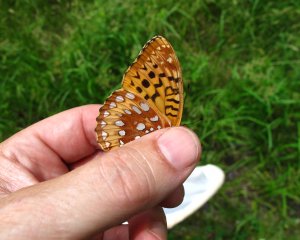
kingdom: Animalia
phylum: Arthropoda
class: Insecta
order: Lepidoptera
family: Nymphalidae
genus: Speyeria
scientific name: Speyeria cybele
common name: Great Spangled Fritillary
